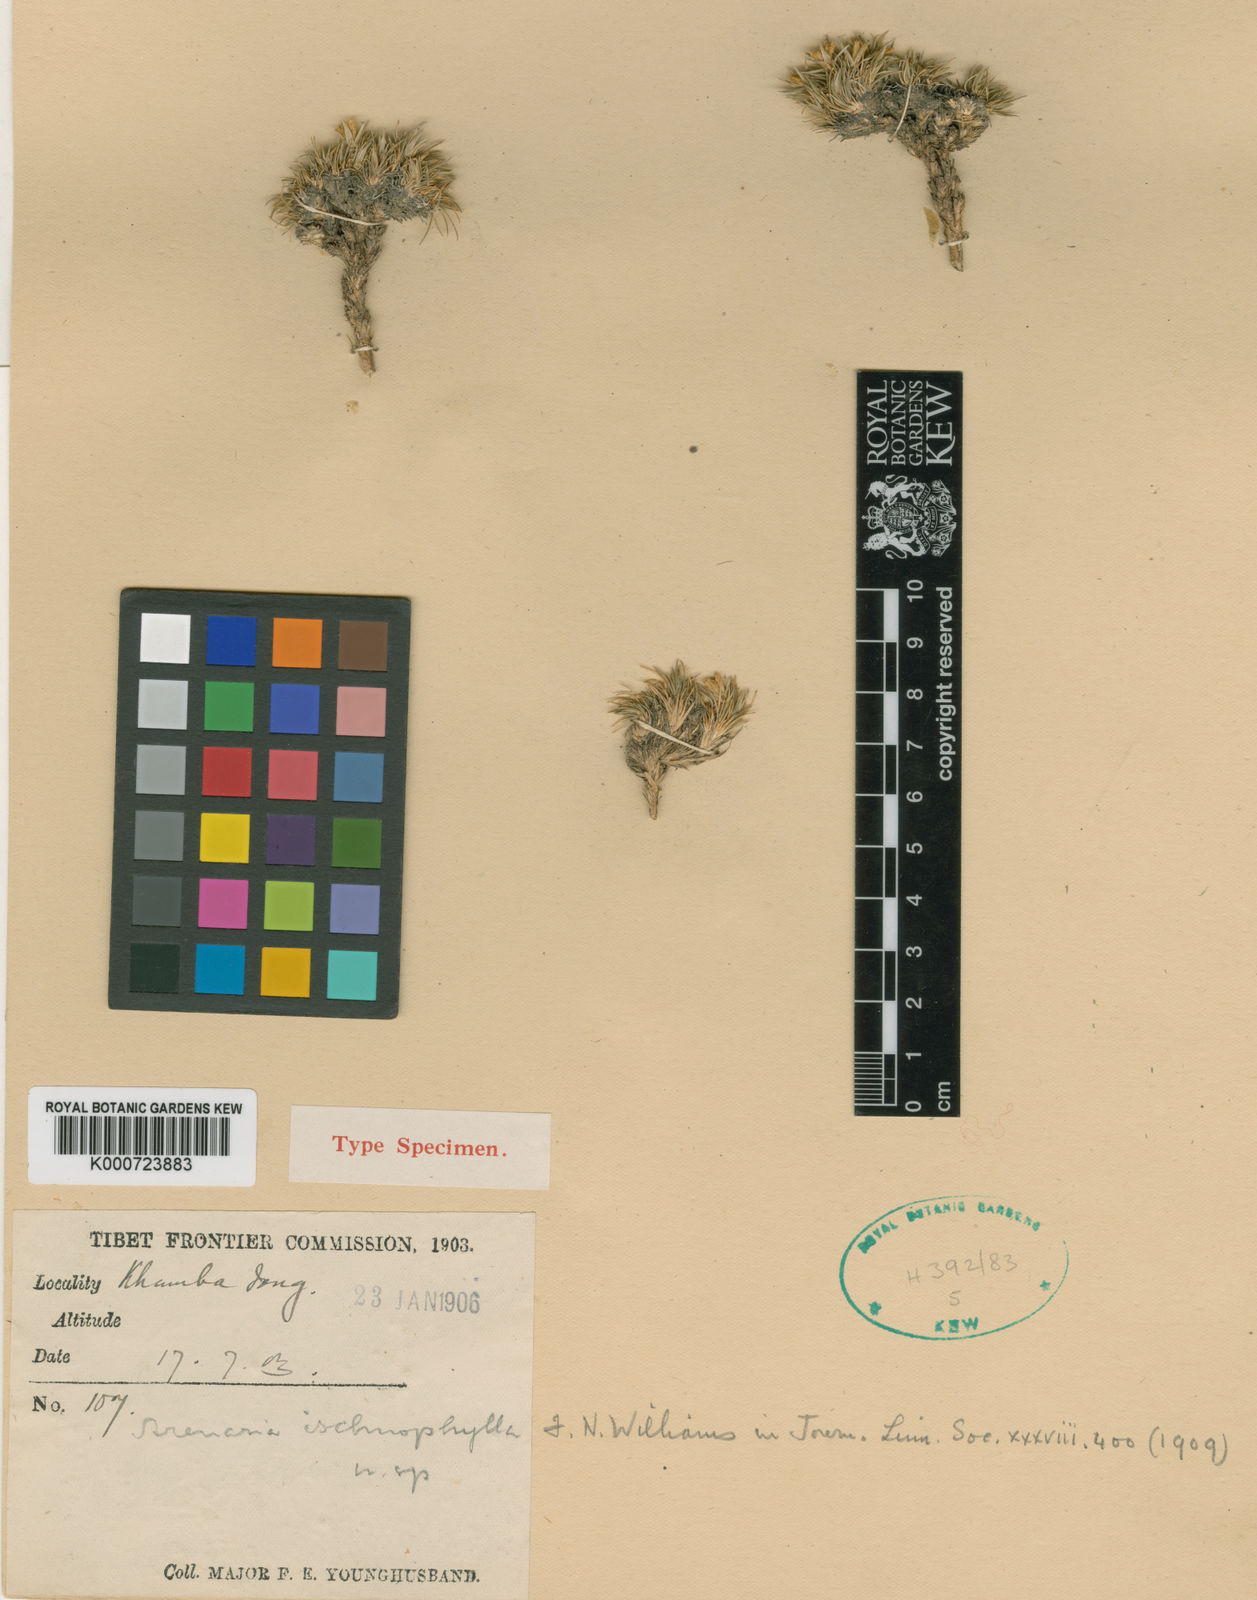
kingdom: Plantae
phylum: Tracheophyta
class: Magnoliopsida
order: Caryophyllales
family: Caryophyllaceae
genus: Eremogone
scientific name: Eremogone ischnophylla
